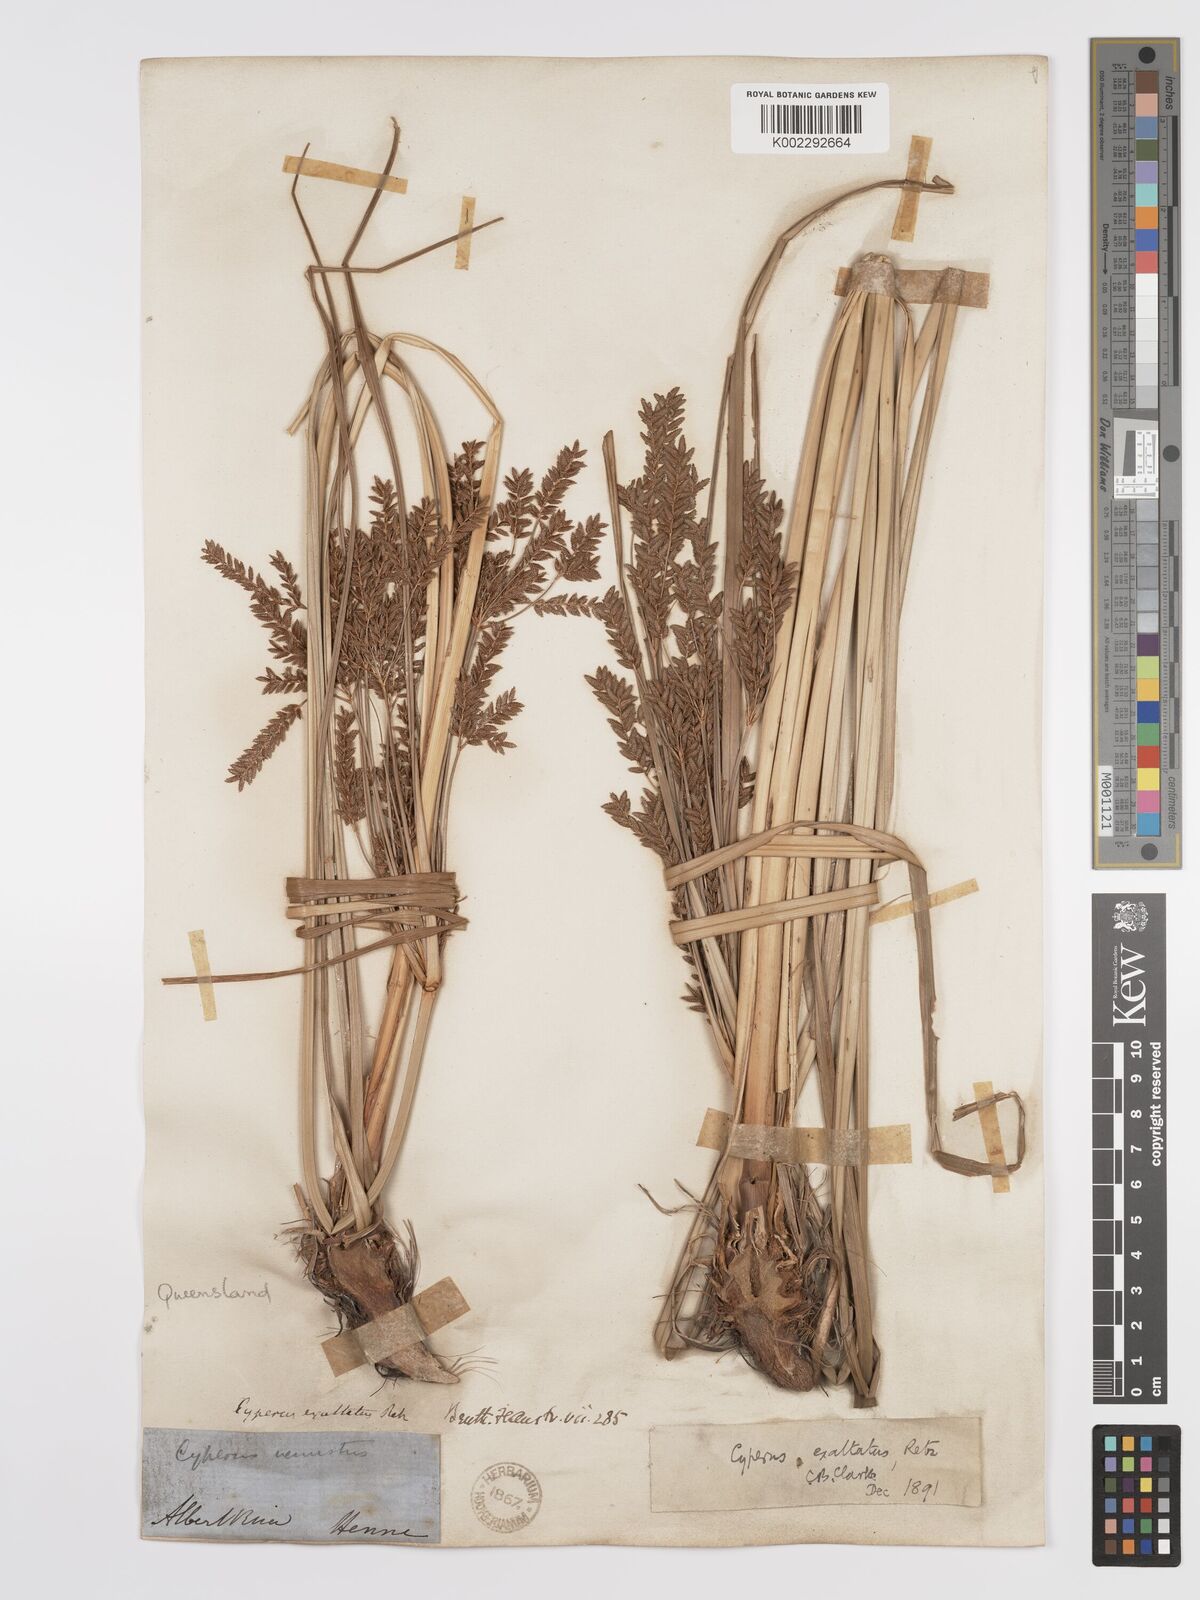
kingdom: Plantae
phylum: Tracheophyta
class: Liliopsida
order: Poales
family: Cyperaceae
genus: Cyperus
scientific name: Cyperus exaltatus
